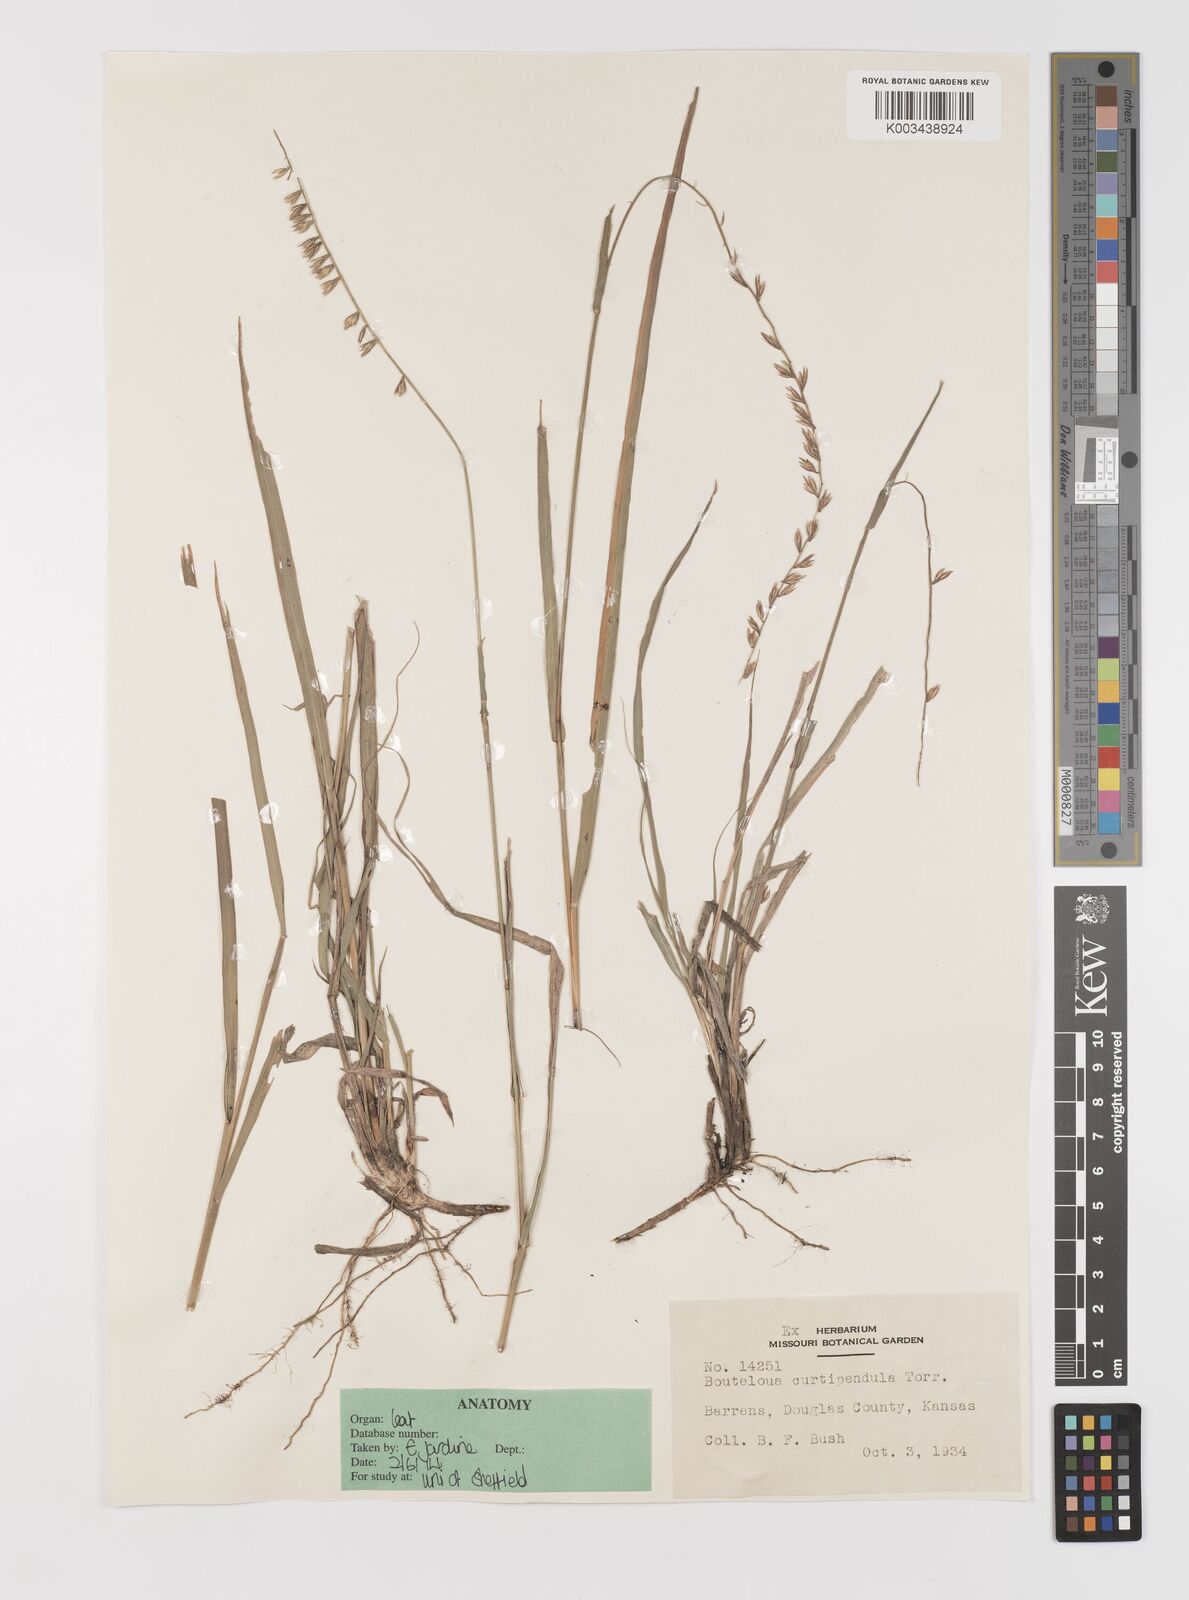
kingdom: Plantae
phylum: Tracheophyta
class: Liliopsida
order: Poales
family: Poaceae
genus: Bouteloua
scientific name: Bouteloua curtipendula
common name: Side-oats grama
